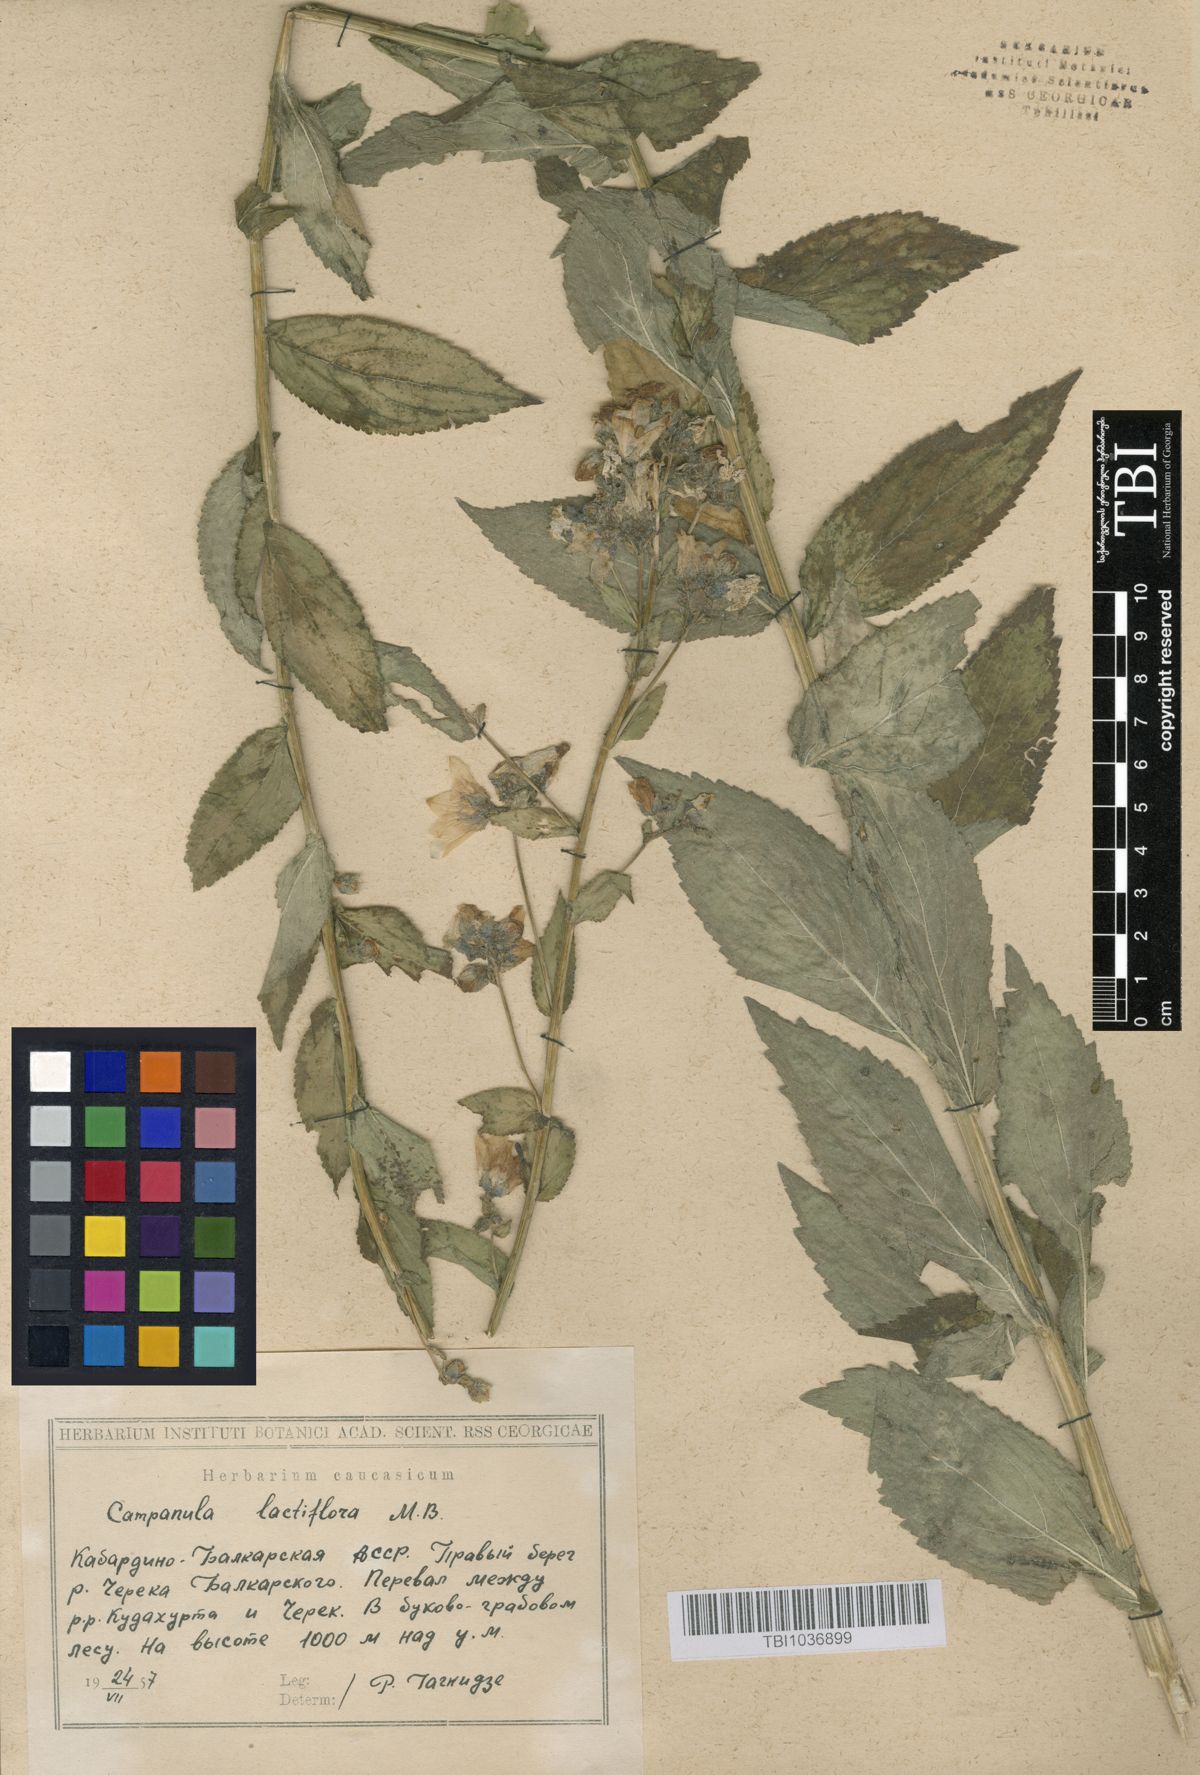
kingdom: Plantae
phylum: Tracheophyta
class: Magnoliopsida
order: Asterales
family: Campanulaceae
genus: Campanula
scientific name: Campanula lactiflora
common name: Milky bellflower
